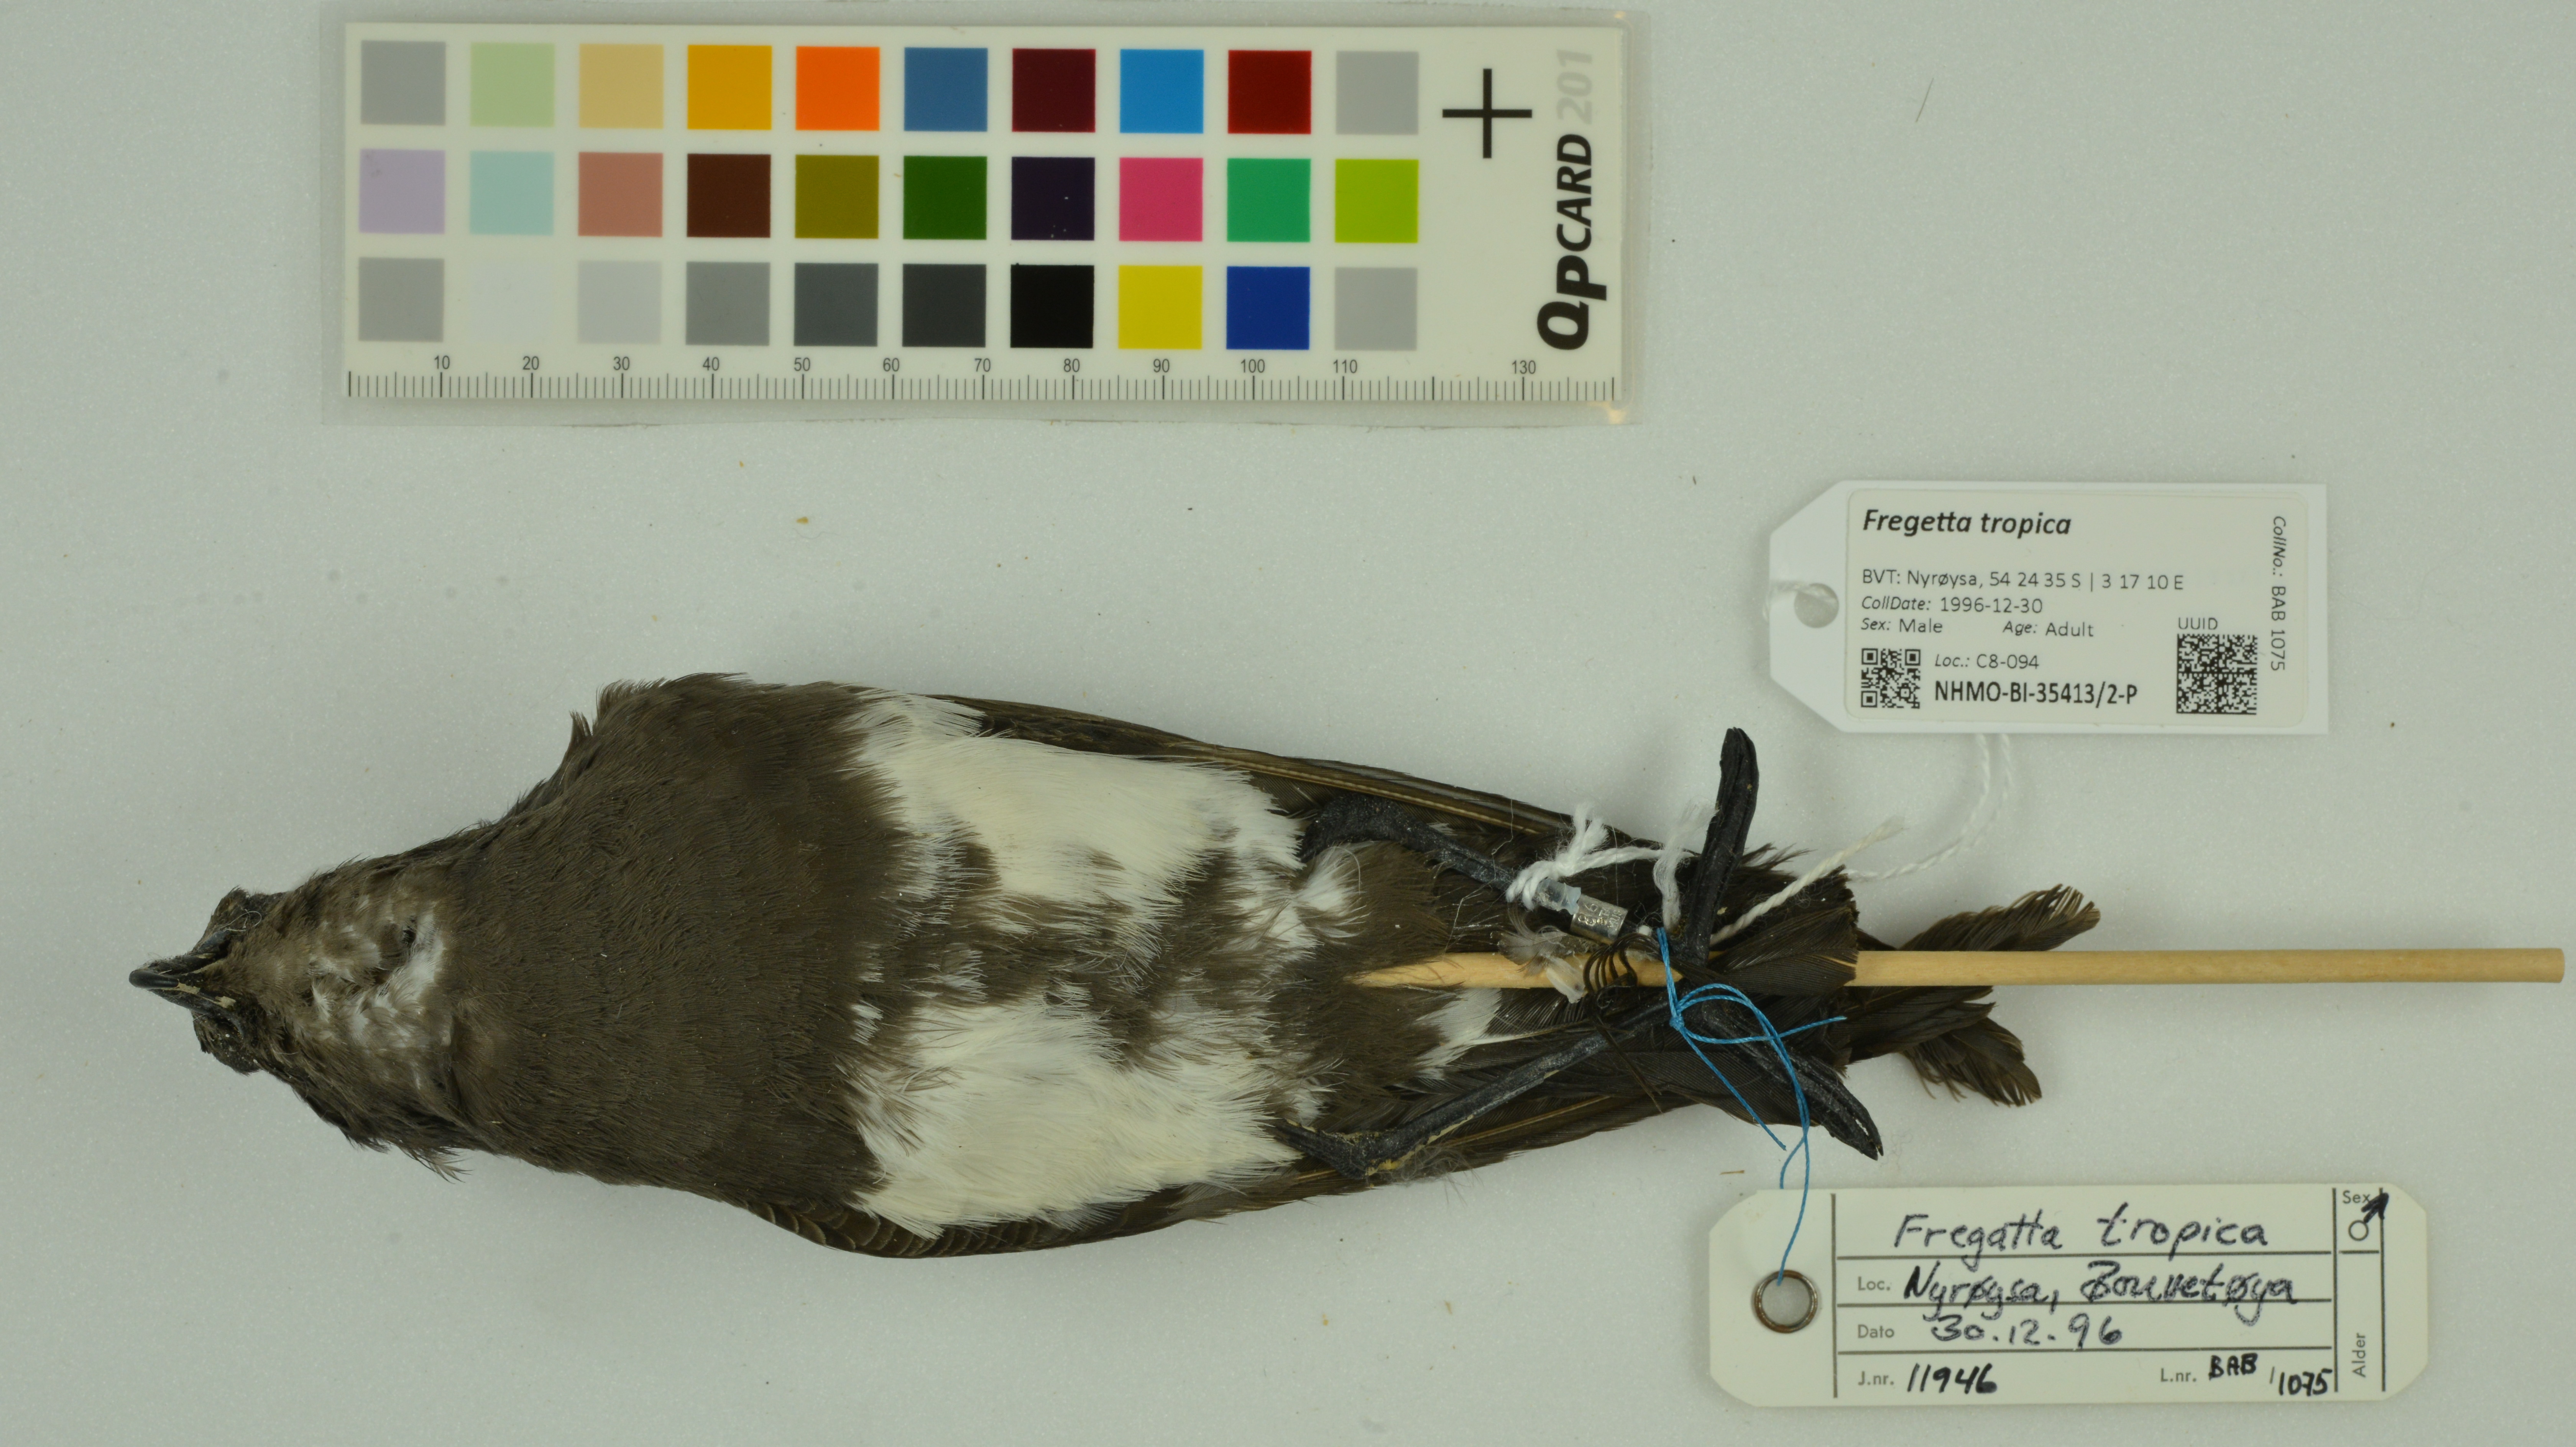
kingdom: Animalia
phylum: Chordata
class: Aves
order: Procellariiformes
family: Hydrobatidae
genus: Fregetta
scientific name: Fregetta tropica
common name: Black-bellied storm-petrel
